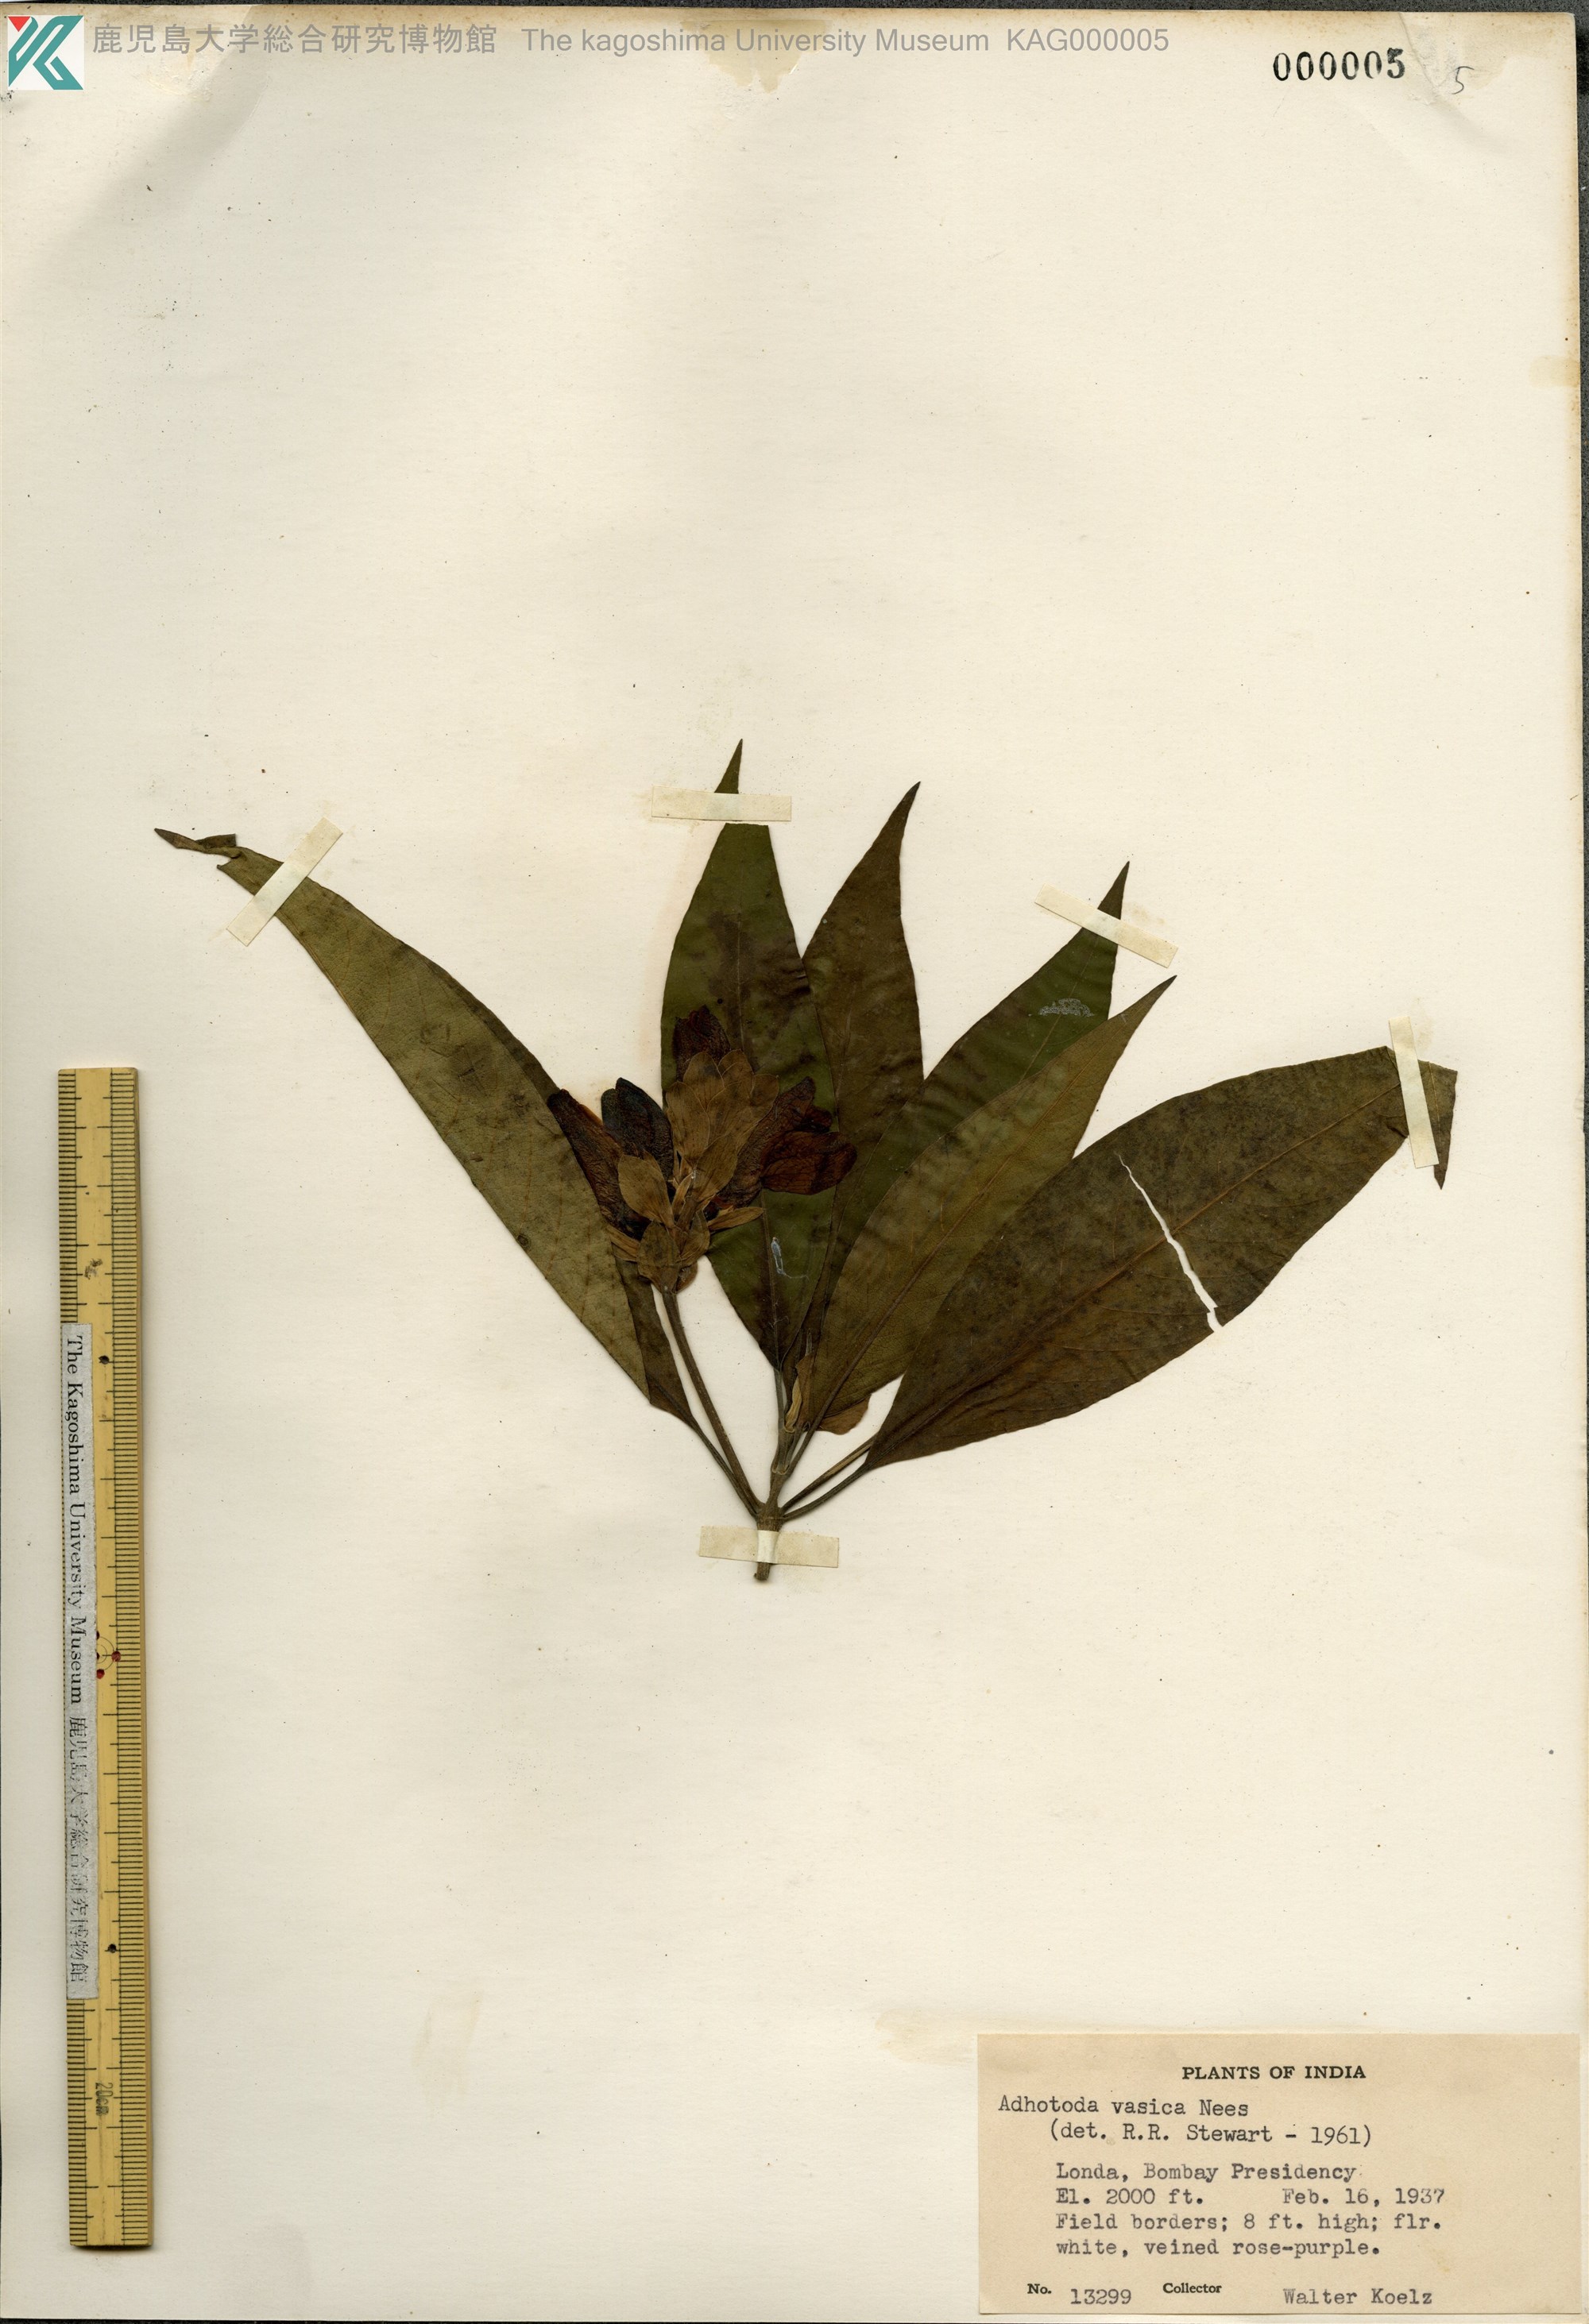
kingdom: Plantae
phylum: Tracheophyta
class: Magnoliopsida
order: Lamiales
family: Acanthaceae
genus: Justicia
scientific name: Justicia adhatoda
